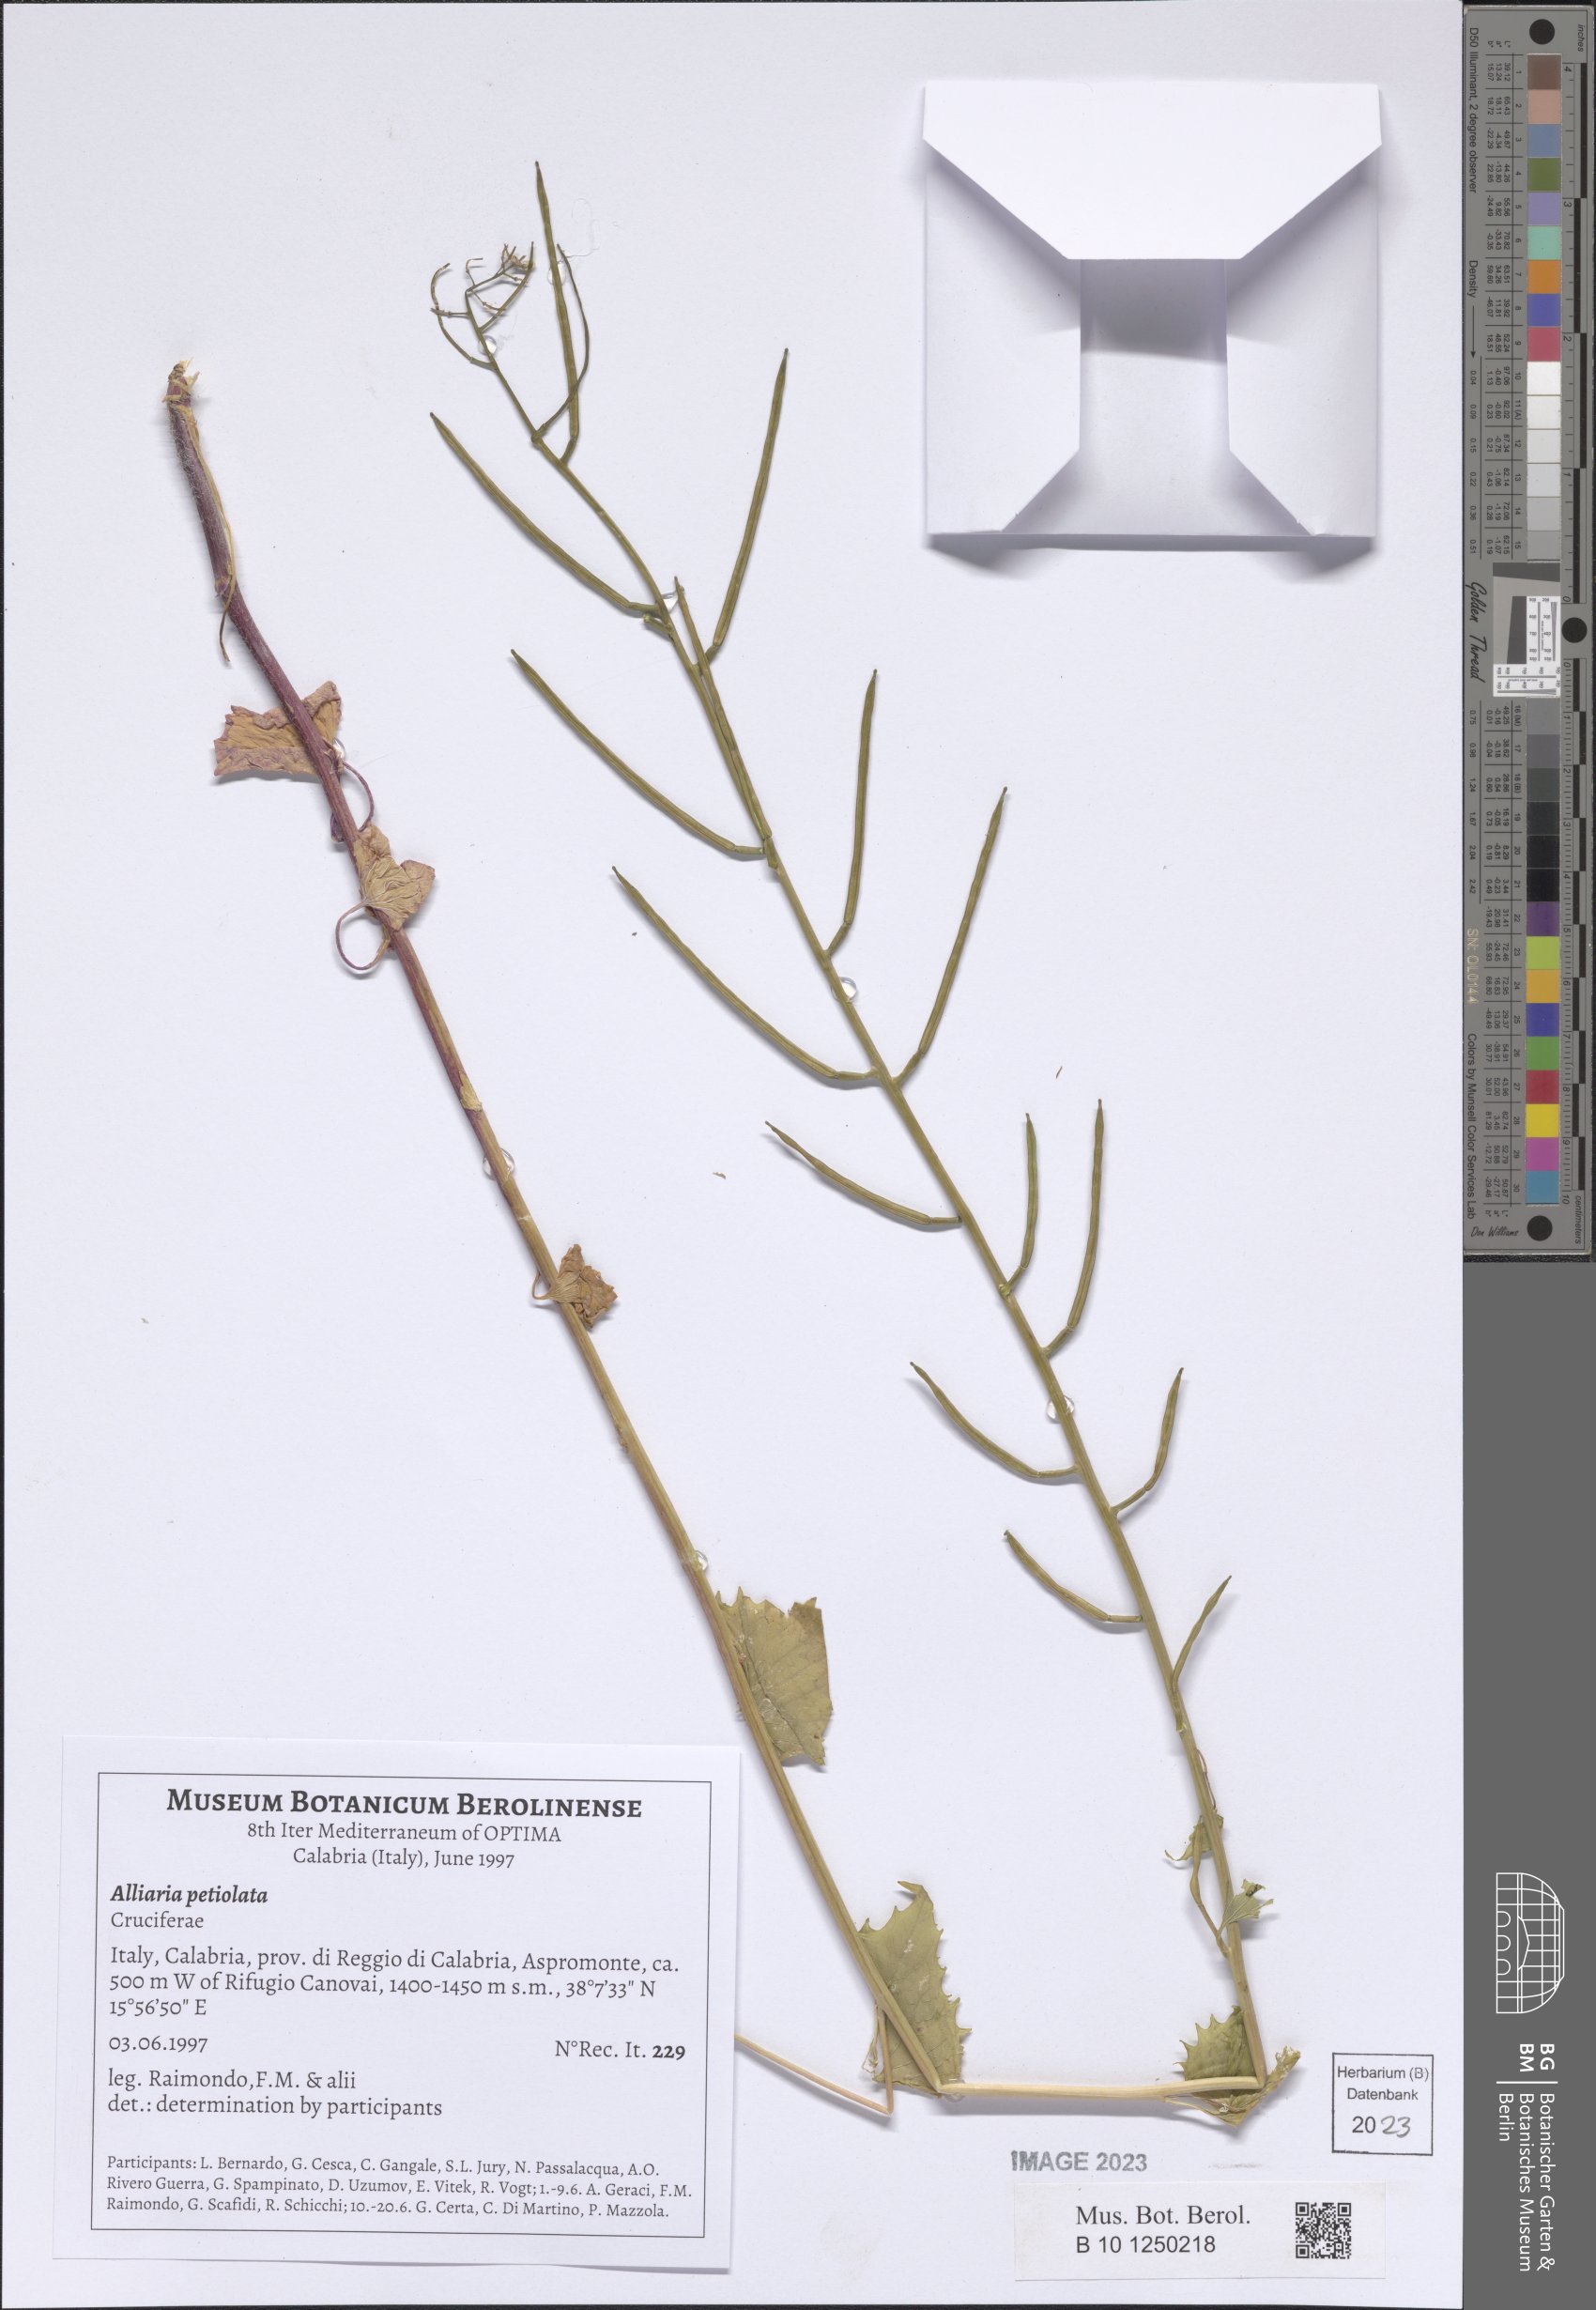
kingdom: Plantae
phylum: Tracheophyta
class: Magnoliopsida
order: Brassicales
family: Brassicaceae
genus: Alliaria
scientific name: Alliaria petiolata
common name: Garlic mustard
